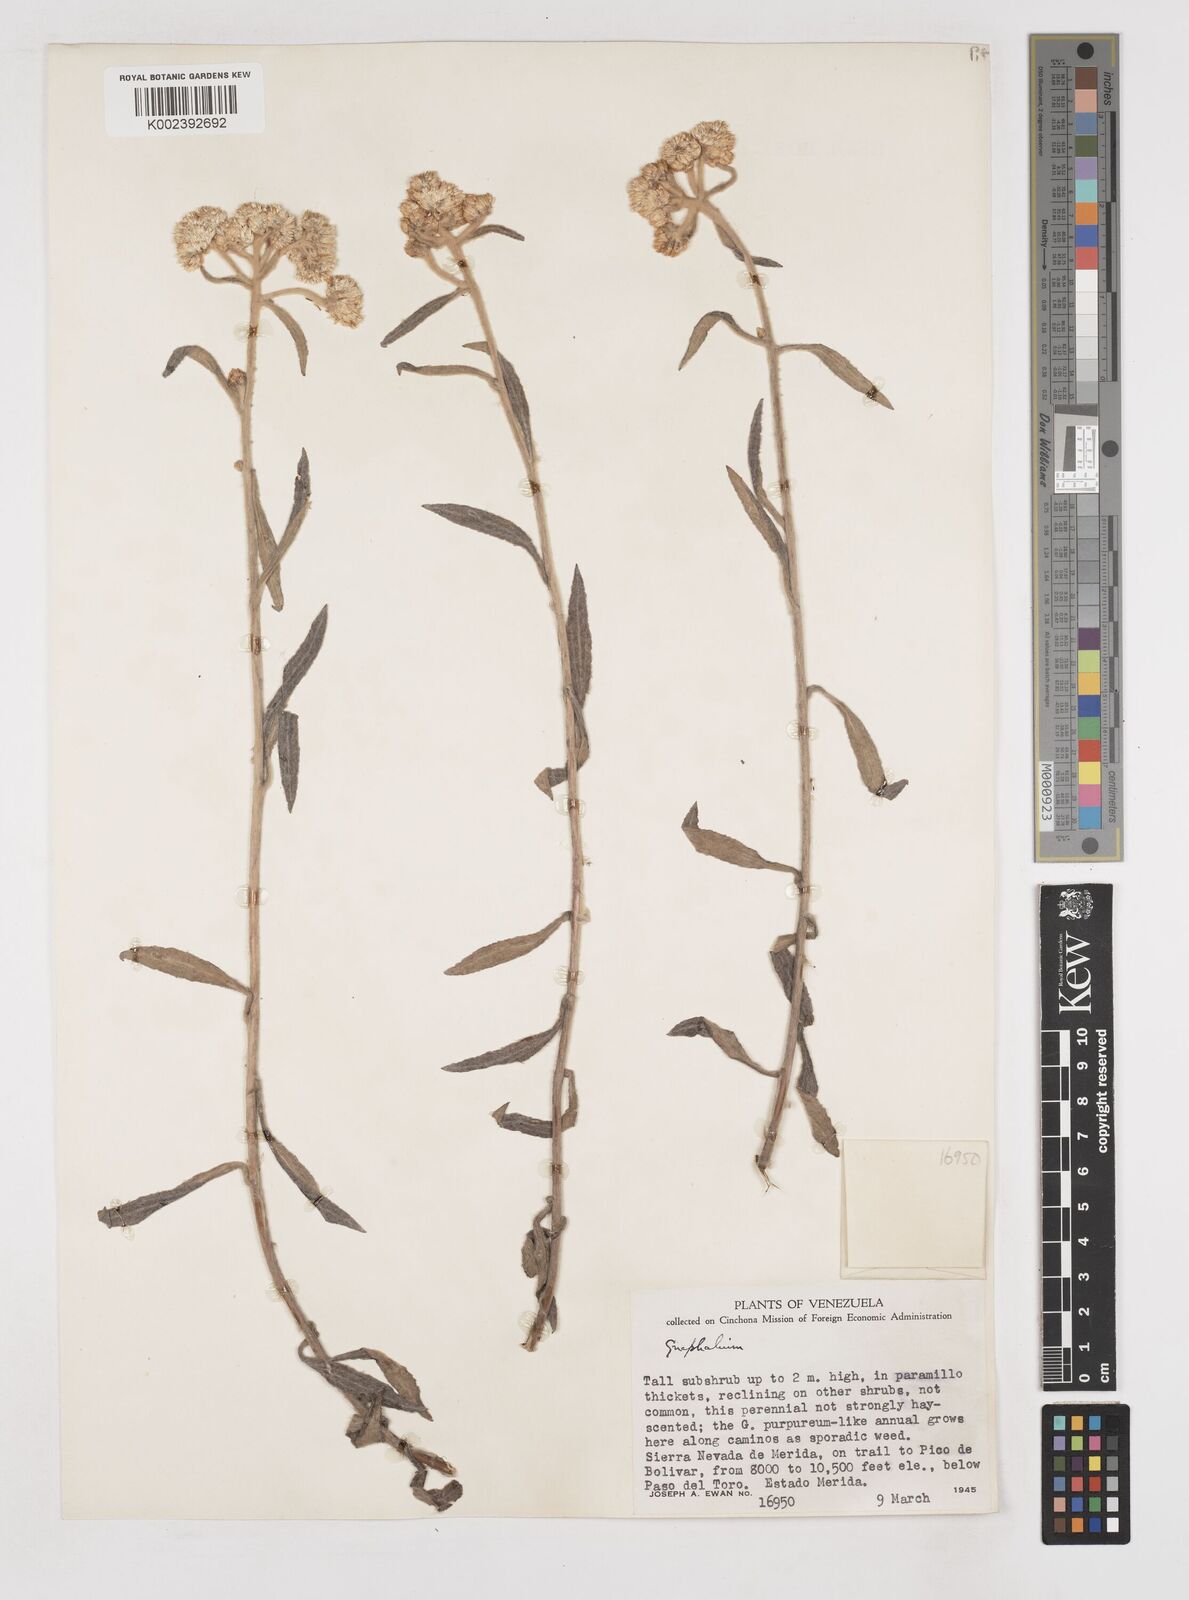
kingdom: Plantae
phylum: Tracheophyta
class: Magnoliopsida
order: Asterales
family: Asteraceae
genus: Gnaphalium
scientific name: Gnaphalium
